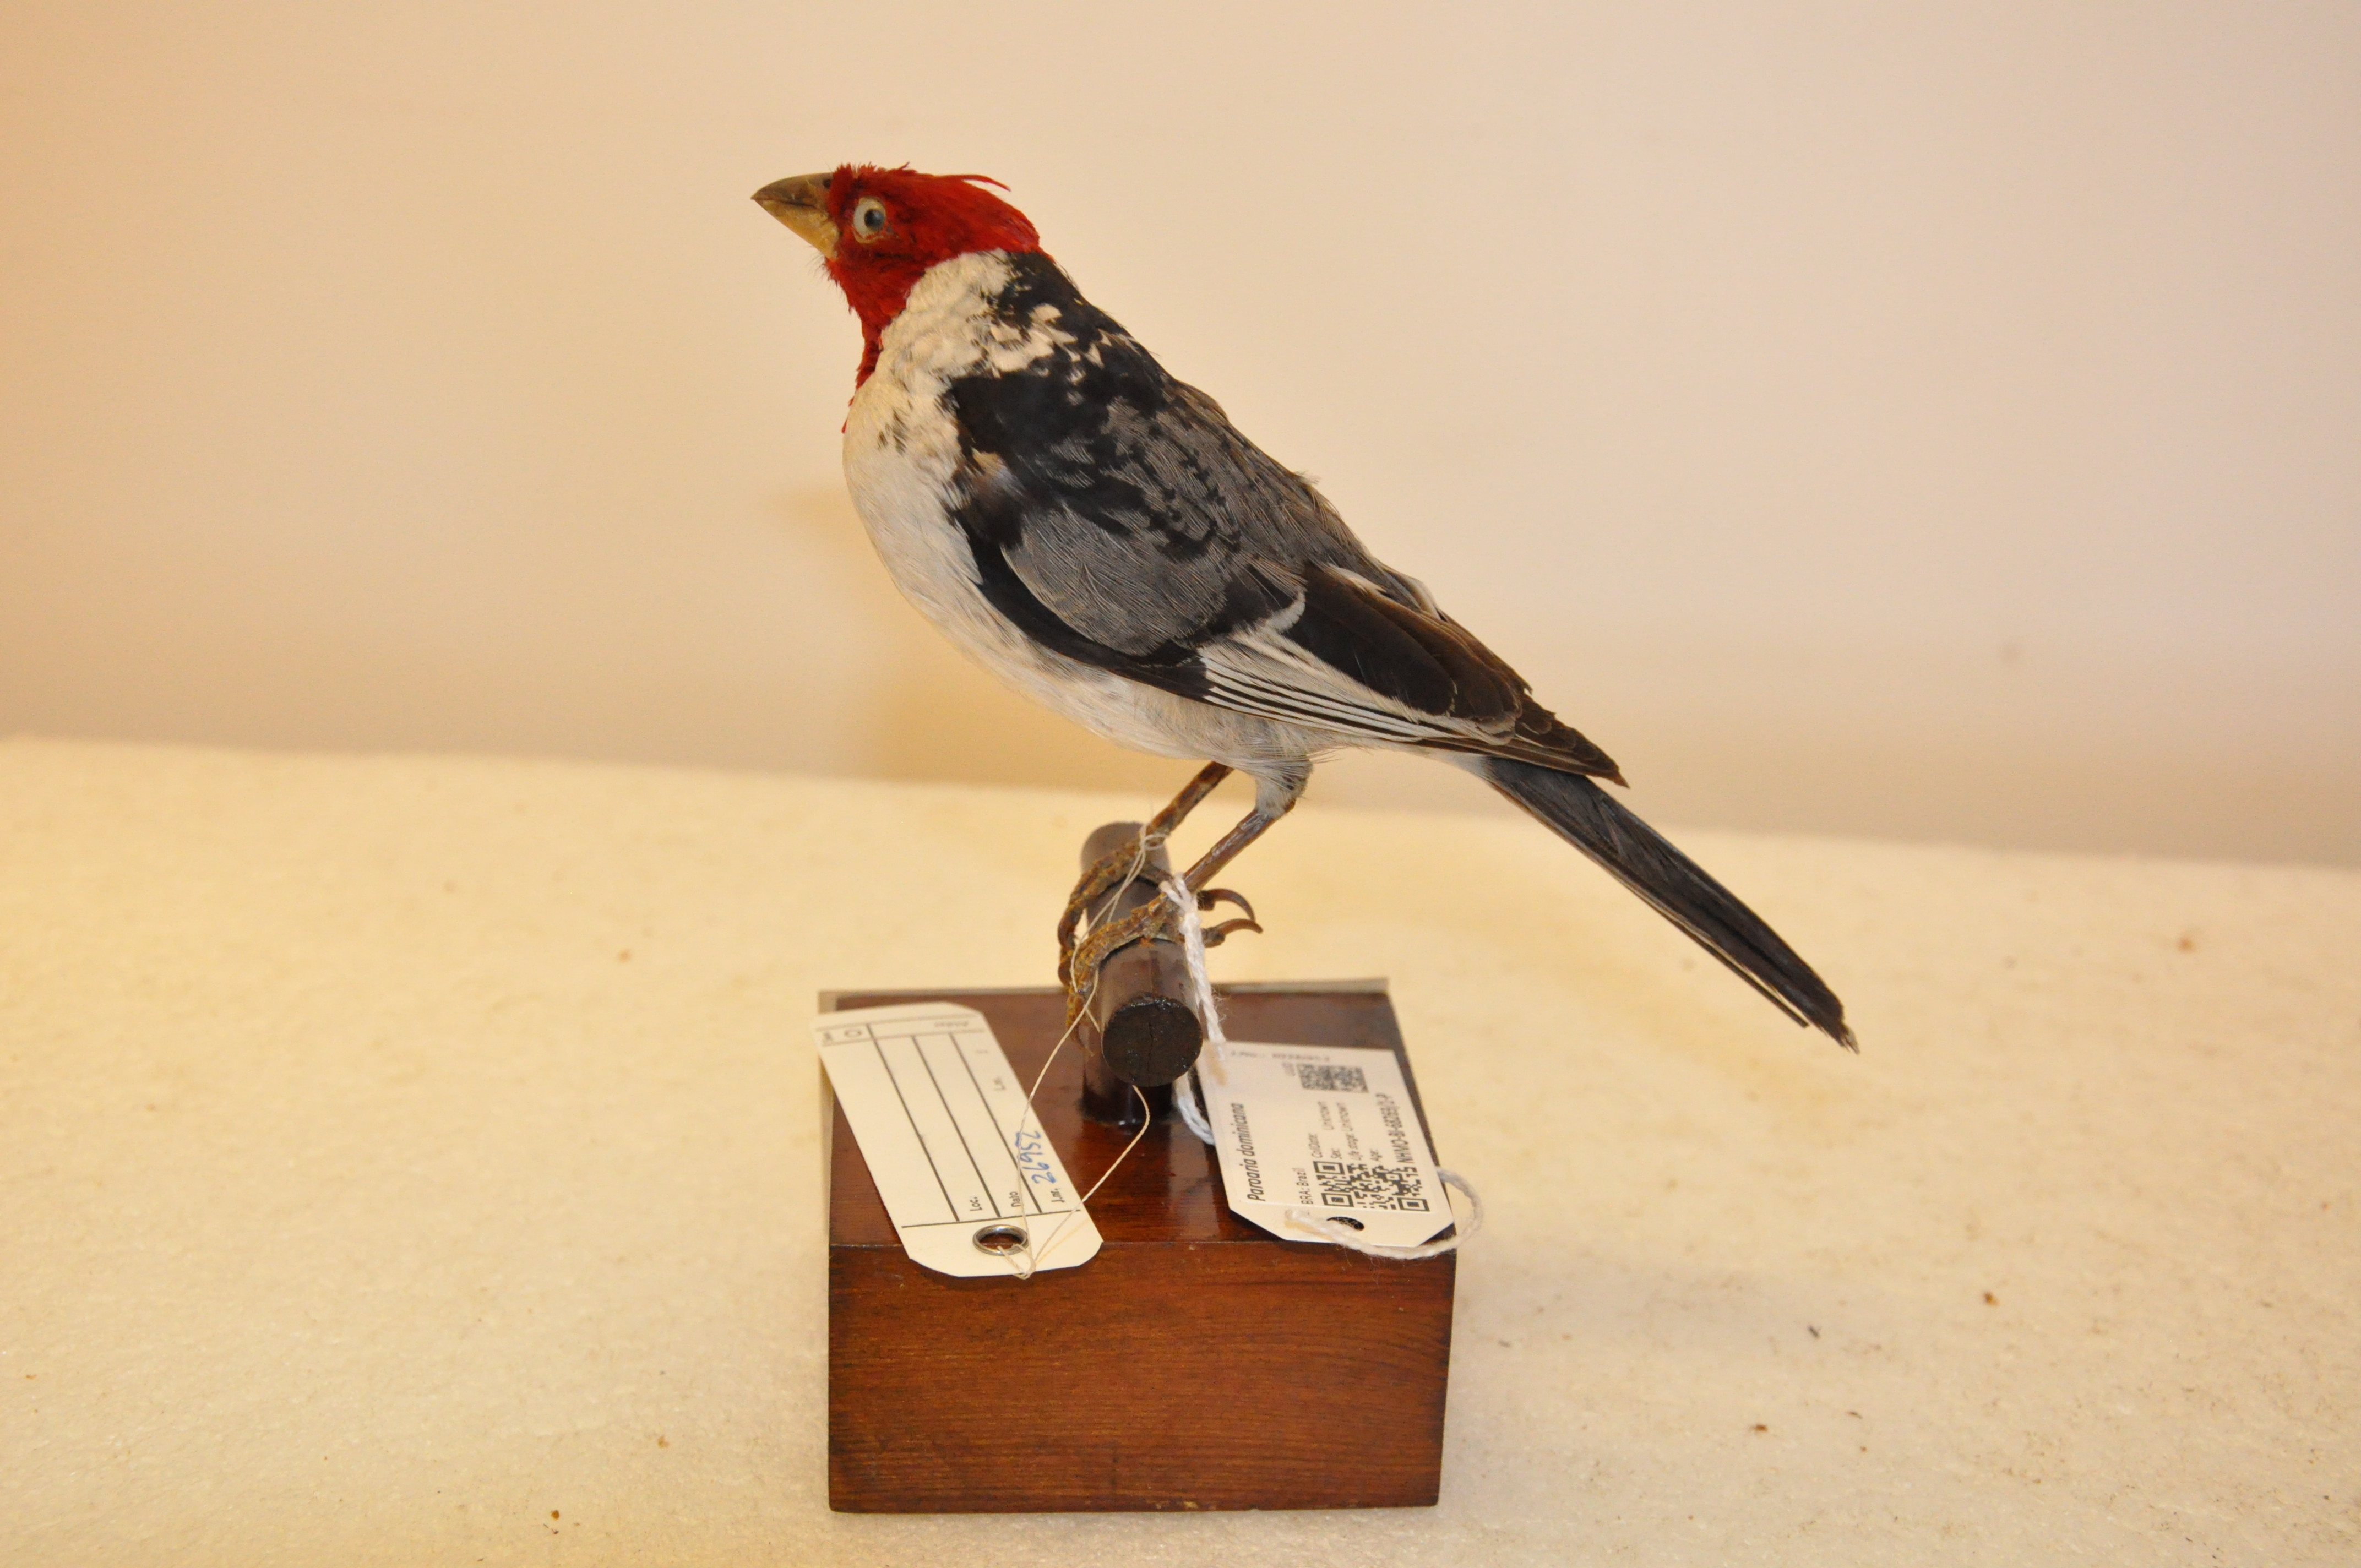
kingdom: Animalia
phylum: Chordata
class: Aves
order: Passeriformes
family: Thraupidae
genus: Paroaria
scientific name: Paroaria dominicana
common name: Red-cowled cardinal
